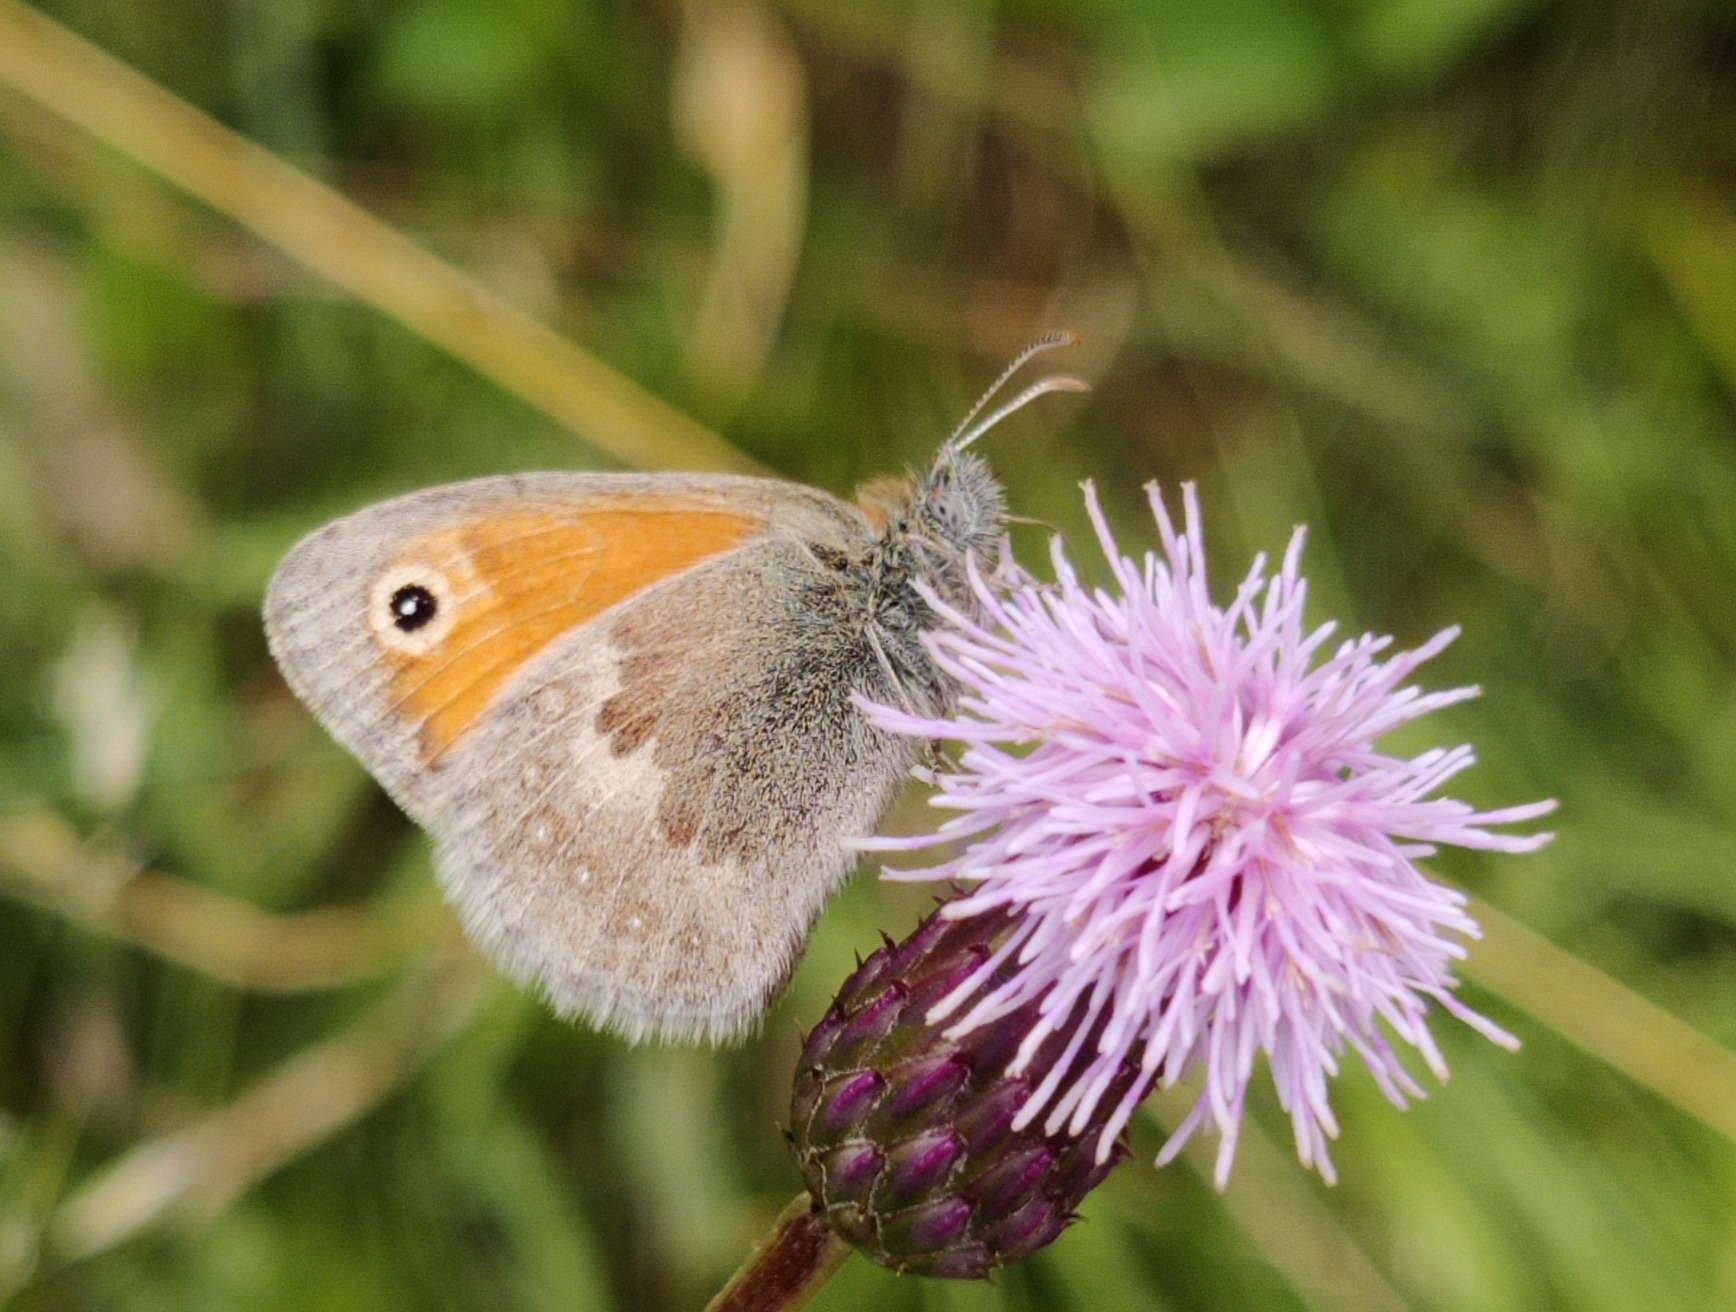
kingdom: Animalia
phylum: Arthropoda
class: Insecta
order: Lepidoptera
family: Nymphalidae
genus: Coenonympha
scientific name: Coenonympha pamphilus
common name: Okkergul randøje
